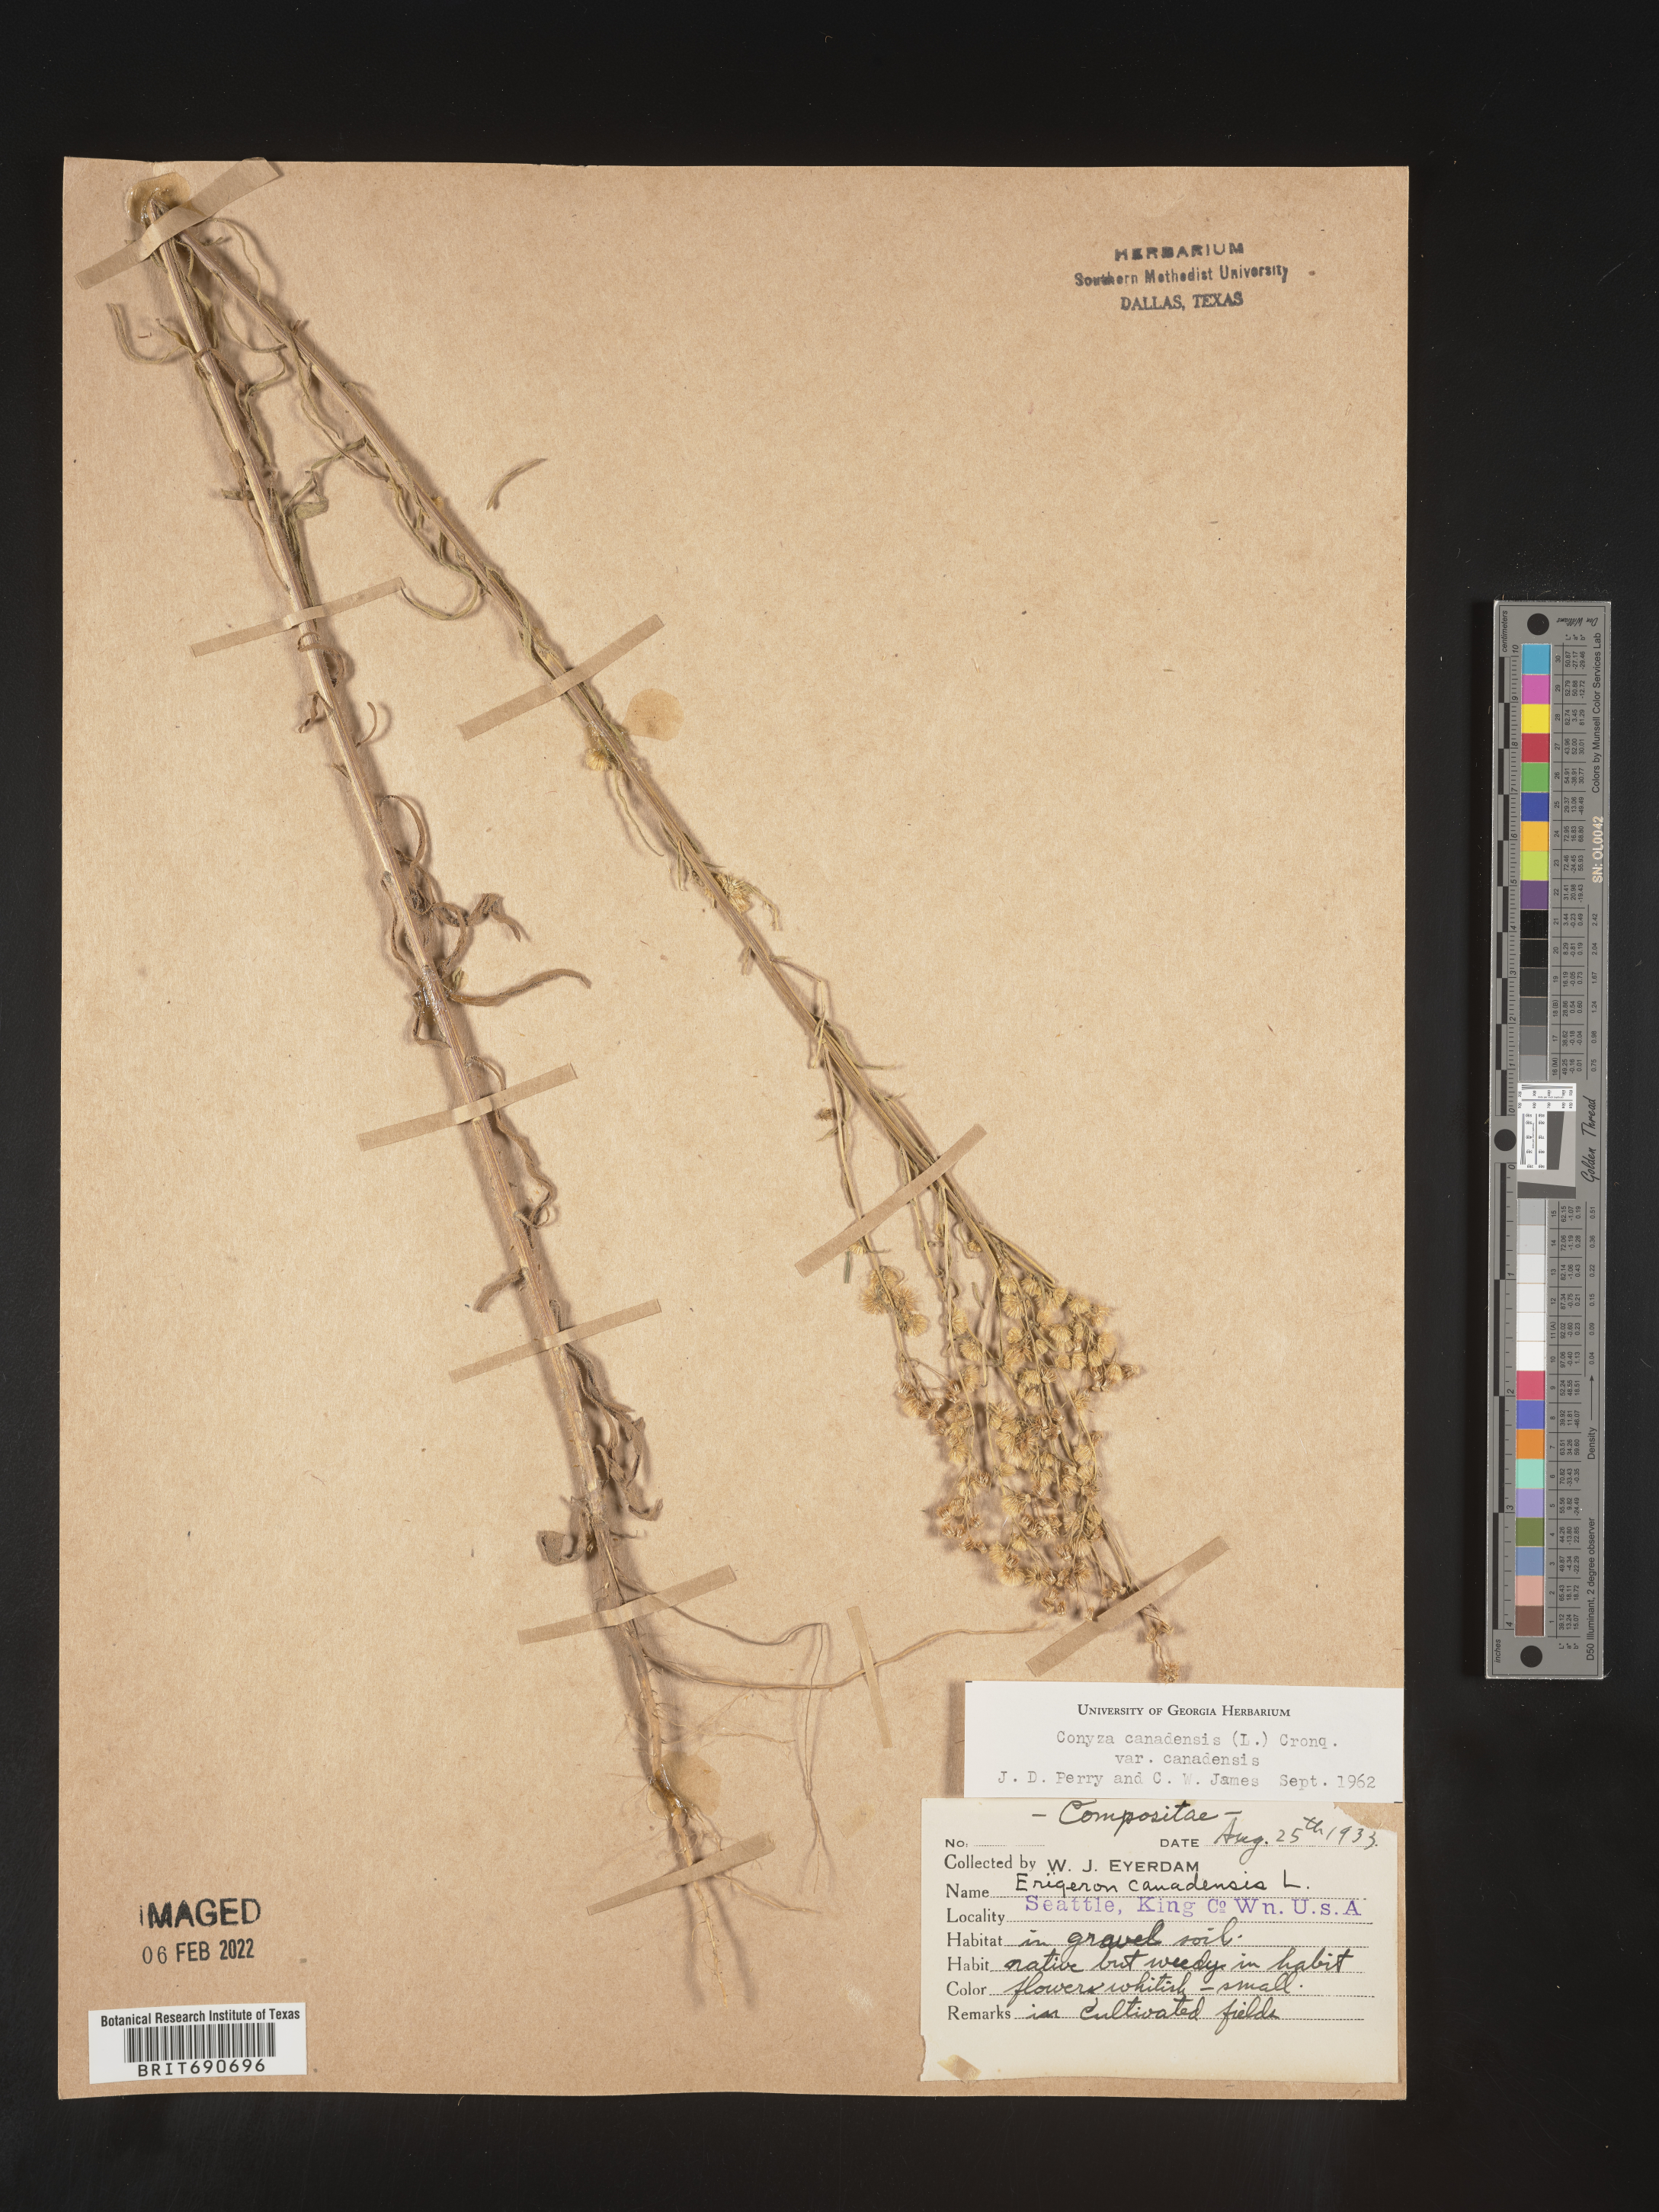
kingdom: Plantae
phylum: Tracheophyta
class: Magnoliopsida
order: Asterales
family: Asteraceae
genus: Erigeron
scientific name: Erigeron canadensis
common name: Canadian fleabane
